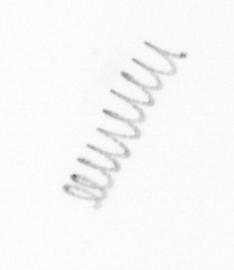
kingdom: Chromista
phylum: Ochrophyta
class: Bacillariophyceae
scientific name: Bacillariophyceae
